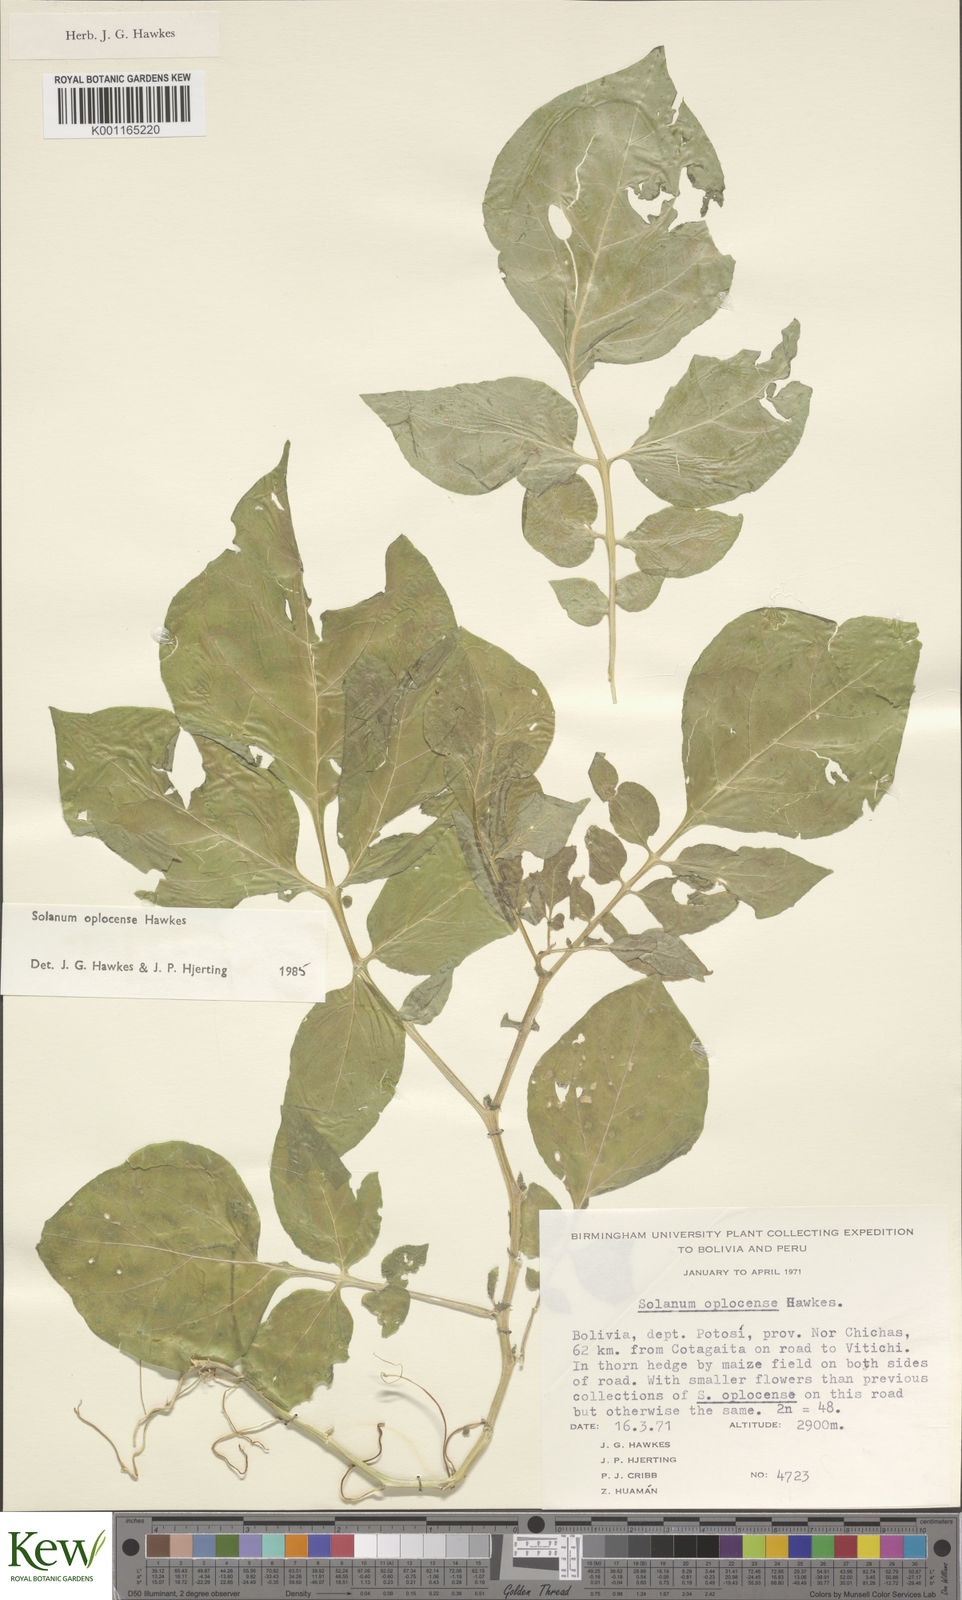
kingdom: Plantae
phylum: Tracheophyta
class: Magnoliopsida
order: Solanales
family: Solanaceae
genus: Solanum
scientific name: Solanum brevicaule
